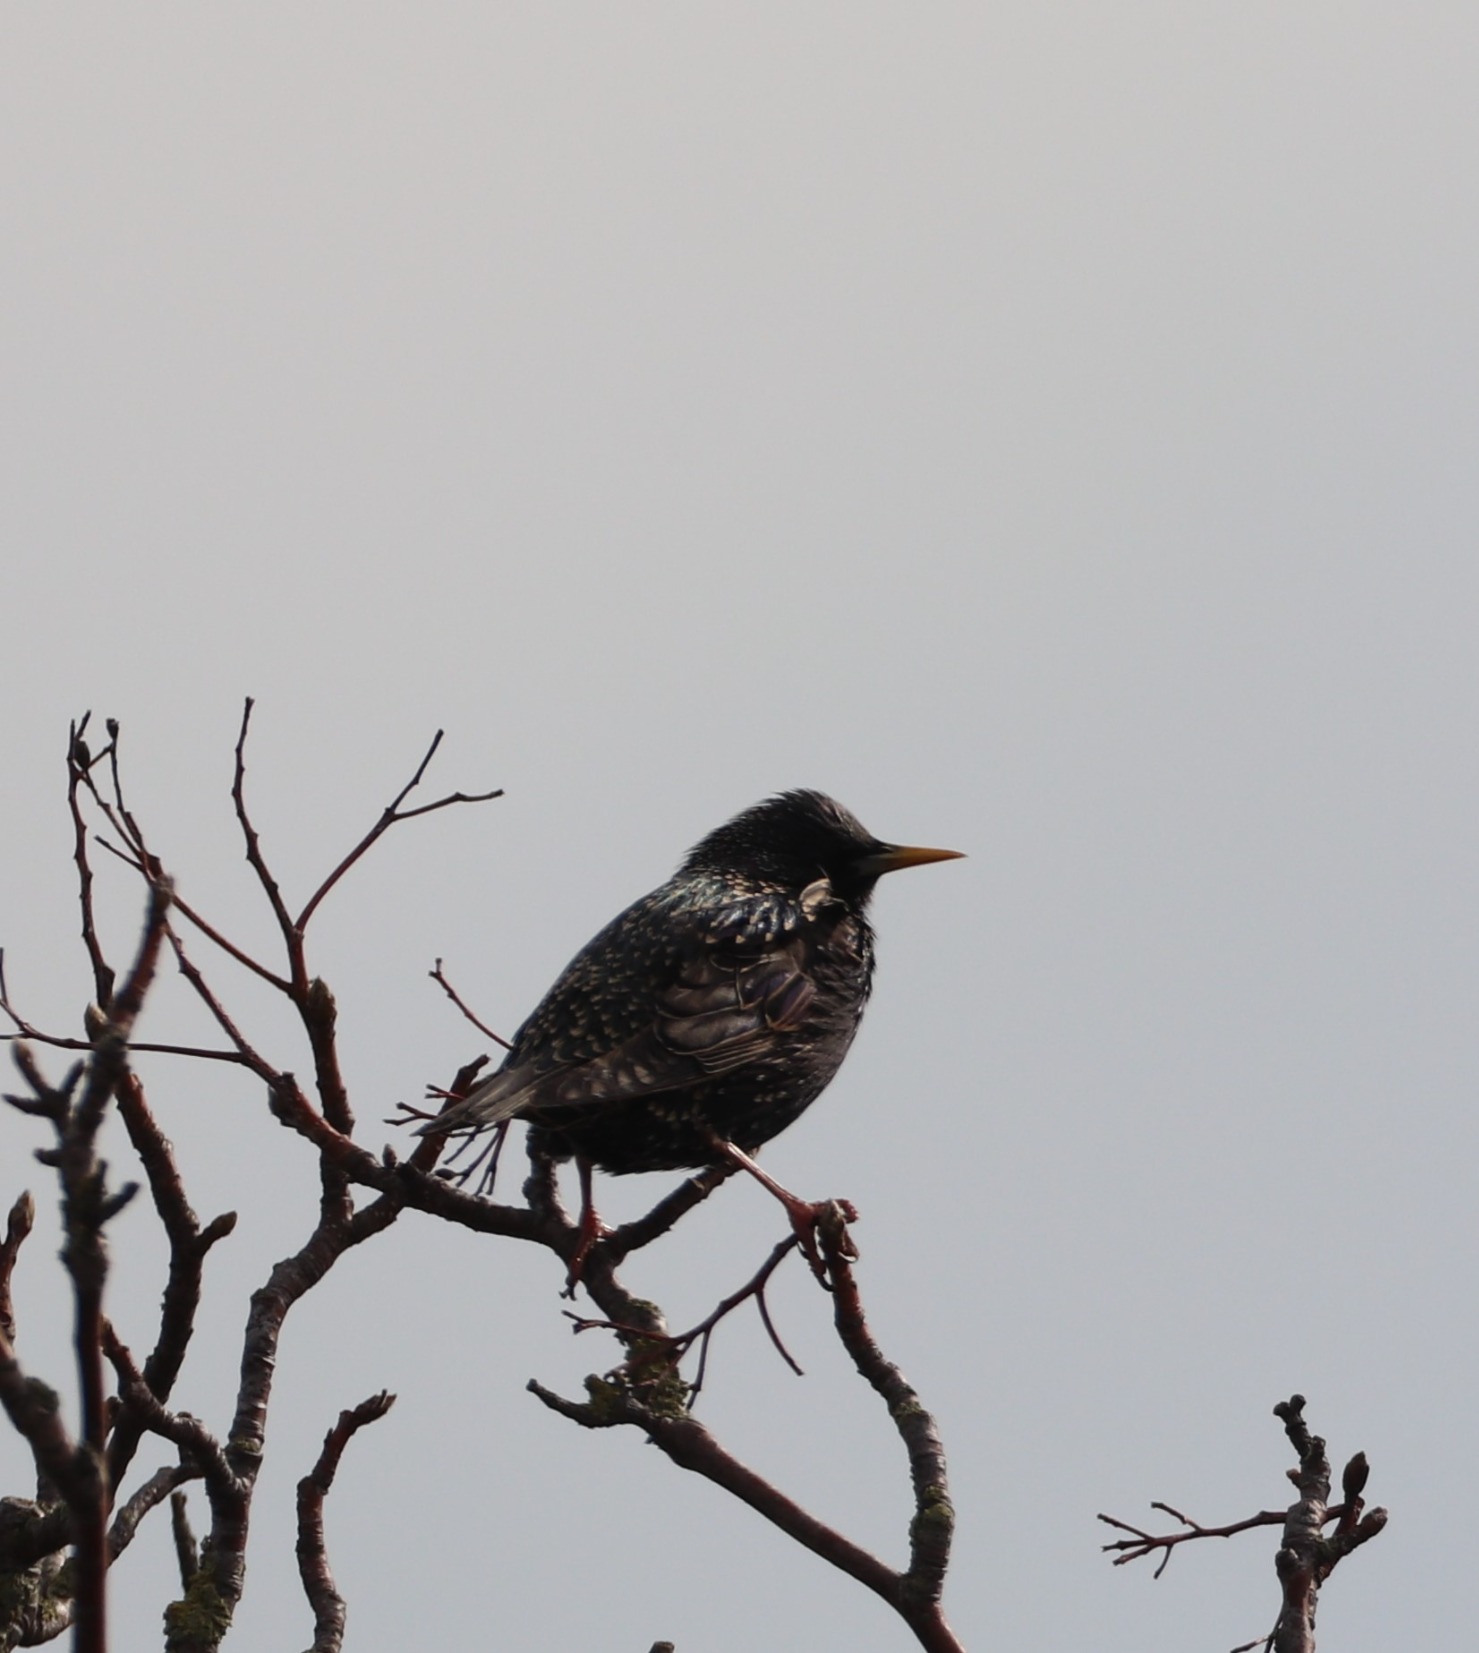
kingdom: Animalia
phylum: Chordata
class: Aves
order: Passeriformes
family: Sturnidae
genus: Sturnus
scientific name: Sturnus vulgaris
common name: Stær
